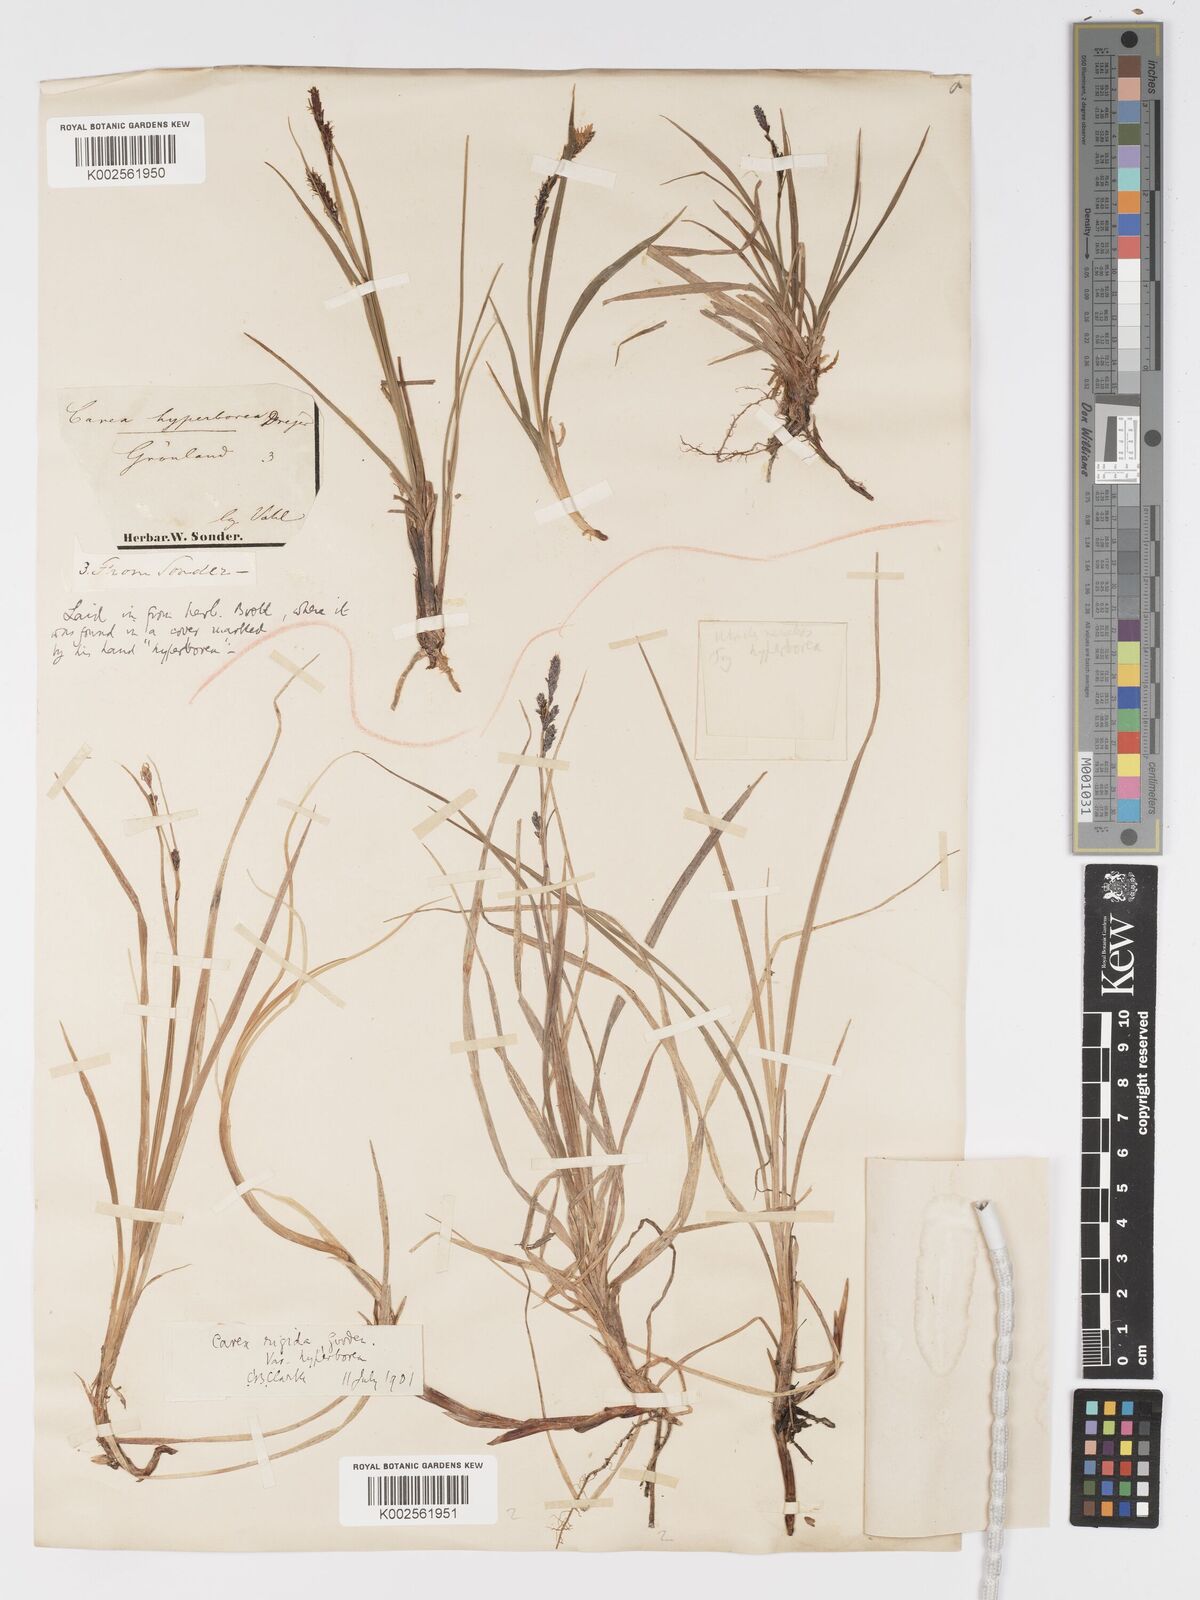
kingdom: Plantae
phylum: Tracheophyta
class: Liliopsida
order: Poales
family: Cyperaceae
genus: Carex
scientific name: Carex bigelowii
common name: Stiff sedge
